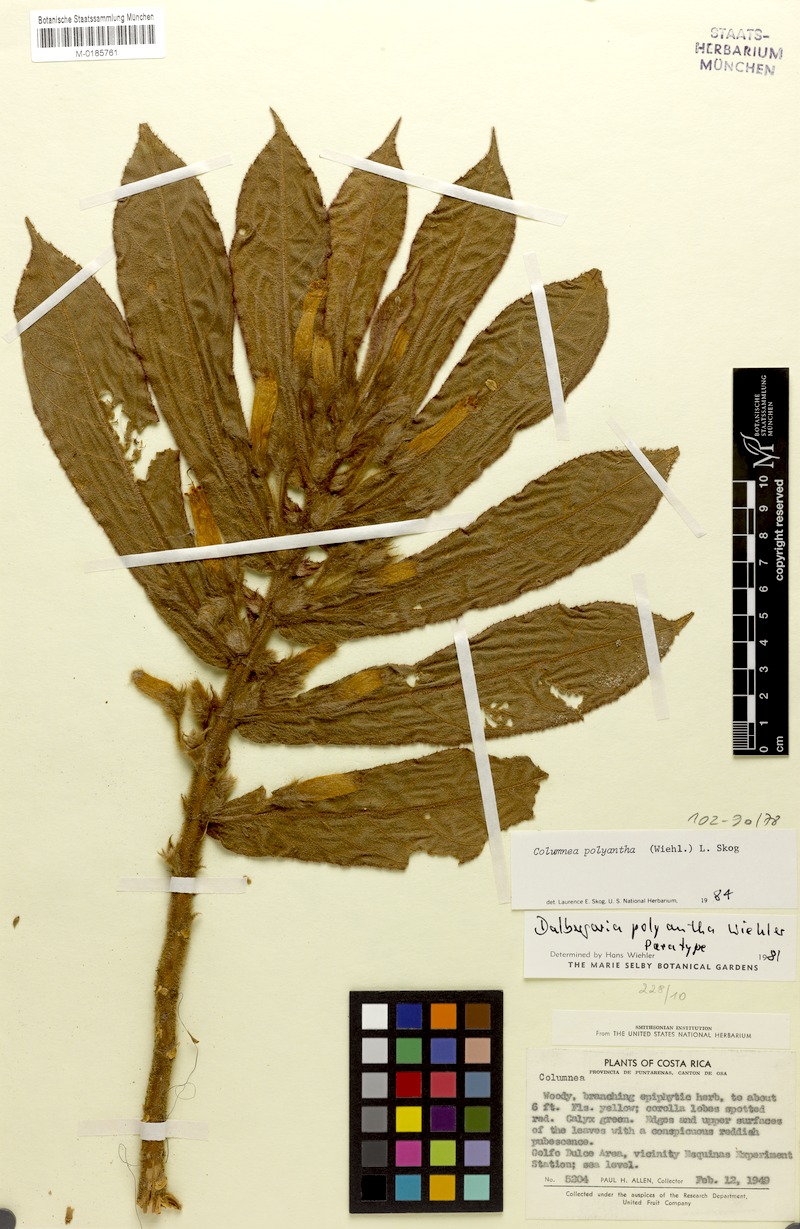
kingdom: Plantae
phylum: Tracheophyta
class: Magnoliopsida
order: Lamiales
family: Gesneriaceae
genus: Columnea
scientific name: Columnea polyantha
